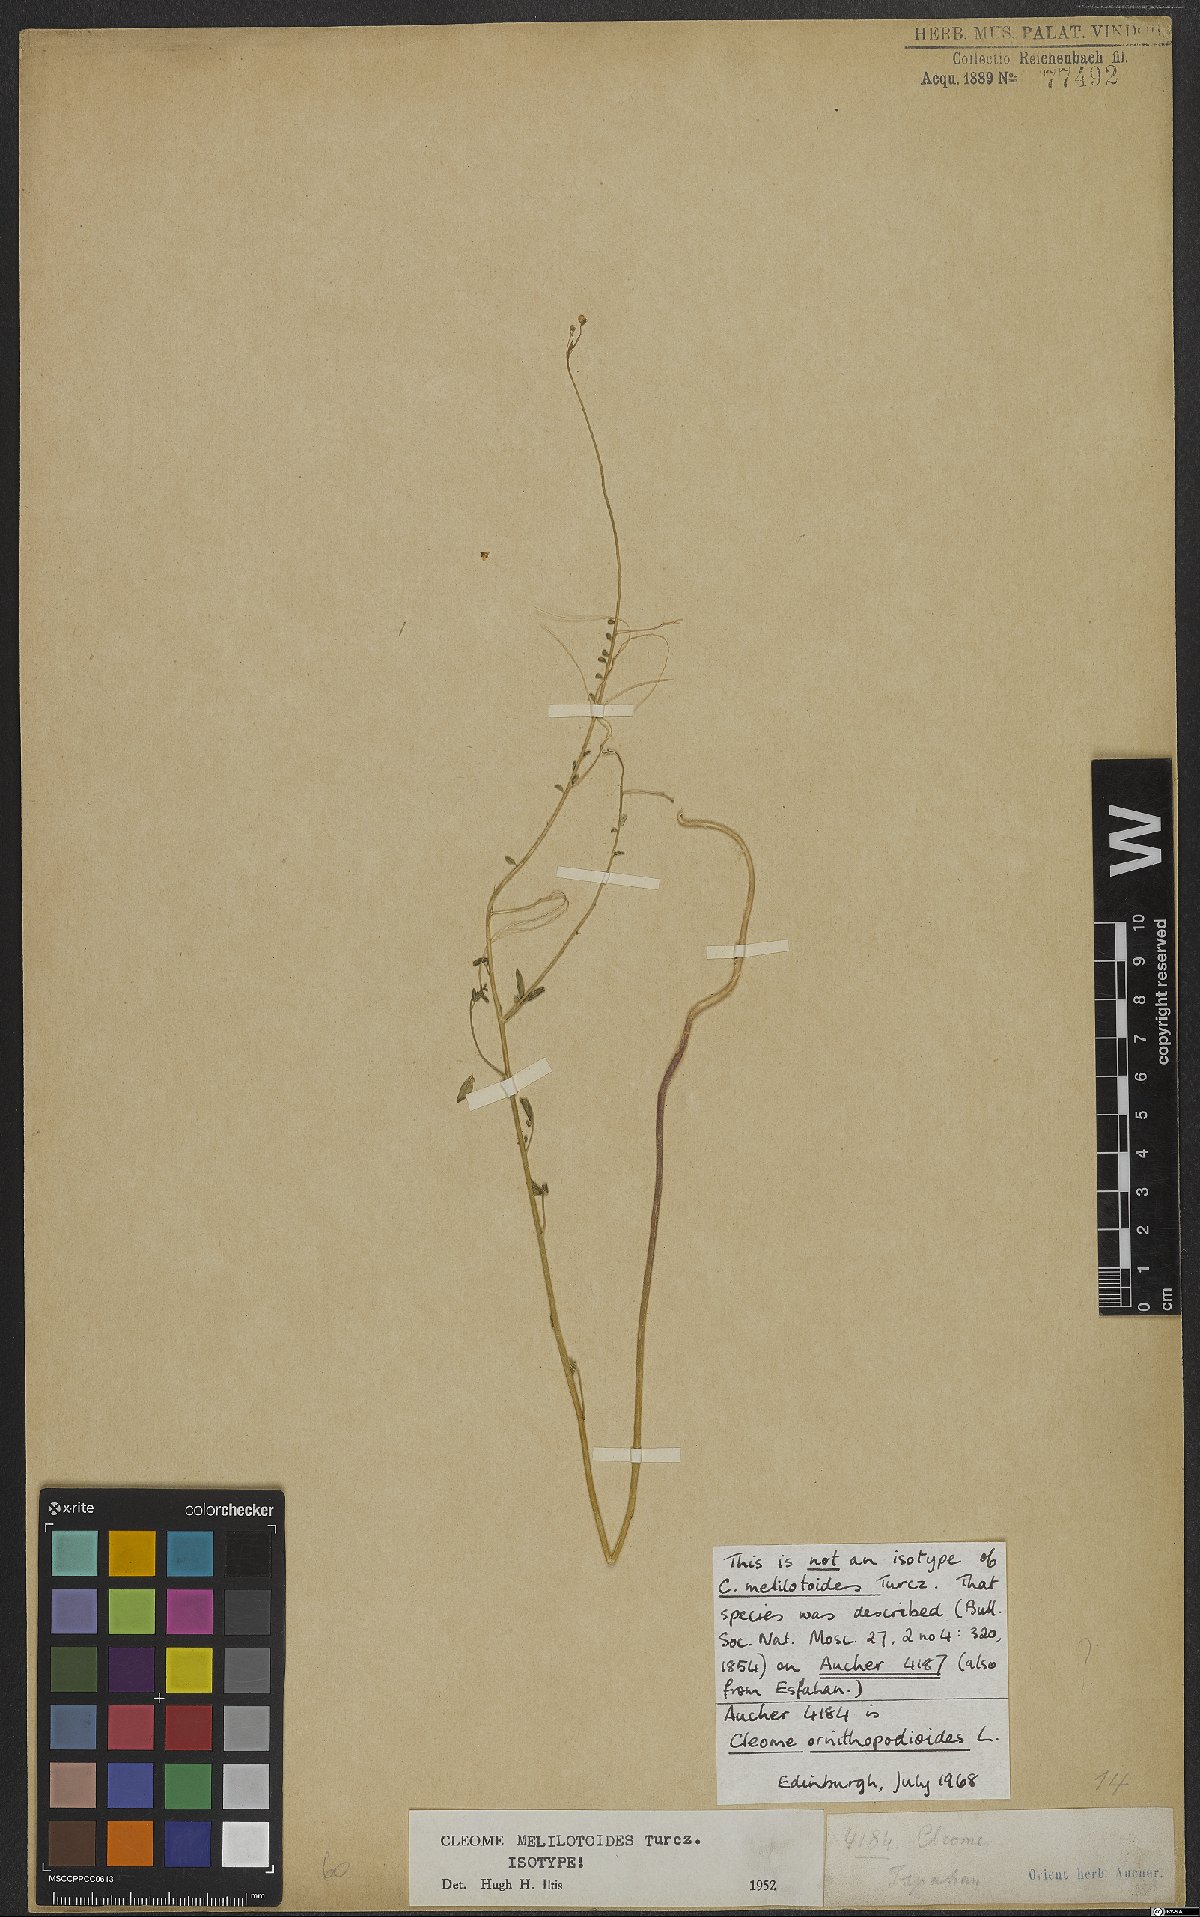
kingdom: Plantae
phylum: Tracheophyta
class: Magnoliopsida
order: Brassicales
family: Cleomaceae
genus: Cleome
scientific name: Cleome ornithopodioides
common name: Bird spiderflower
